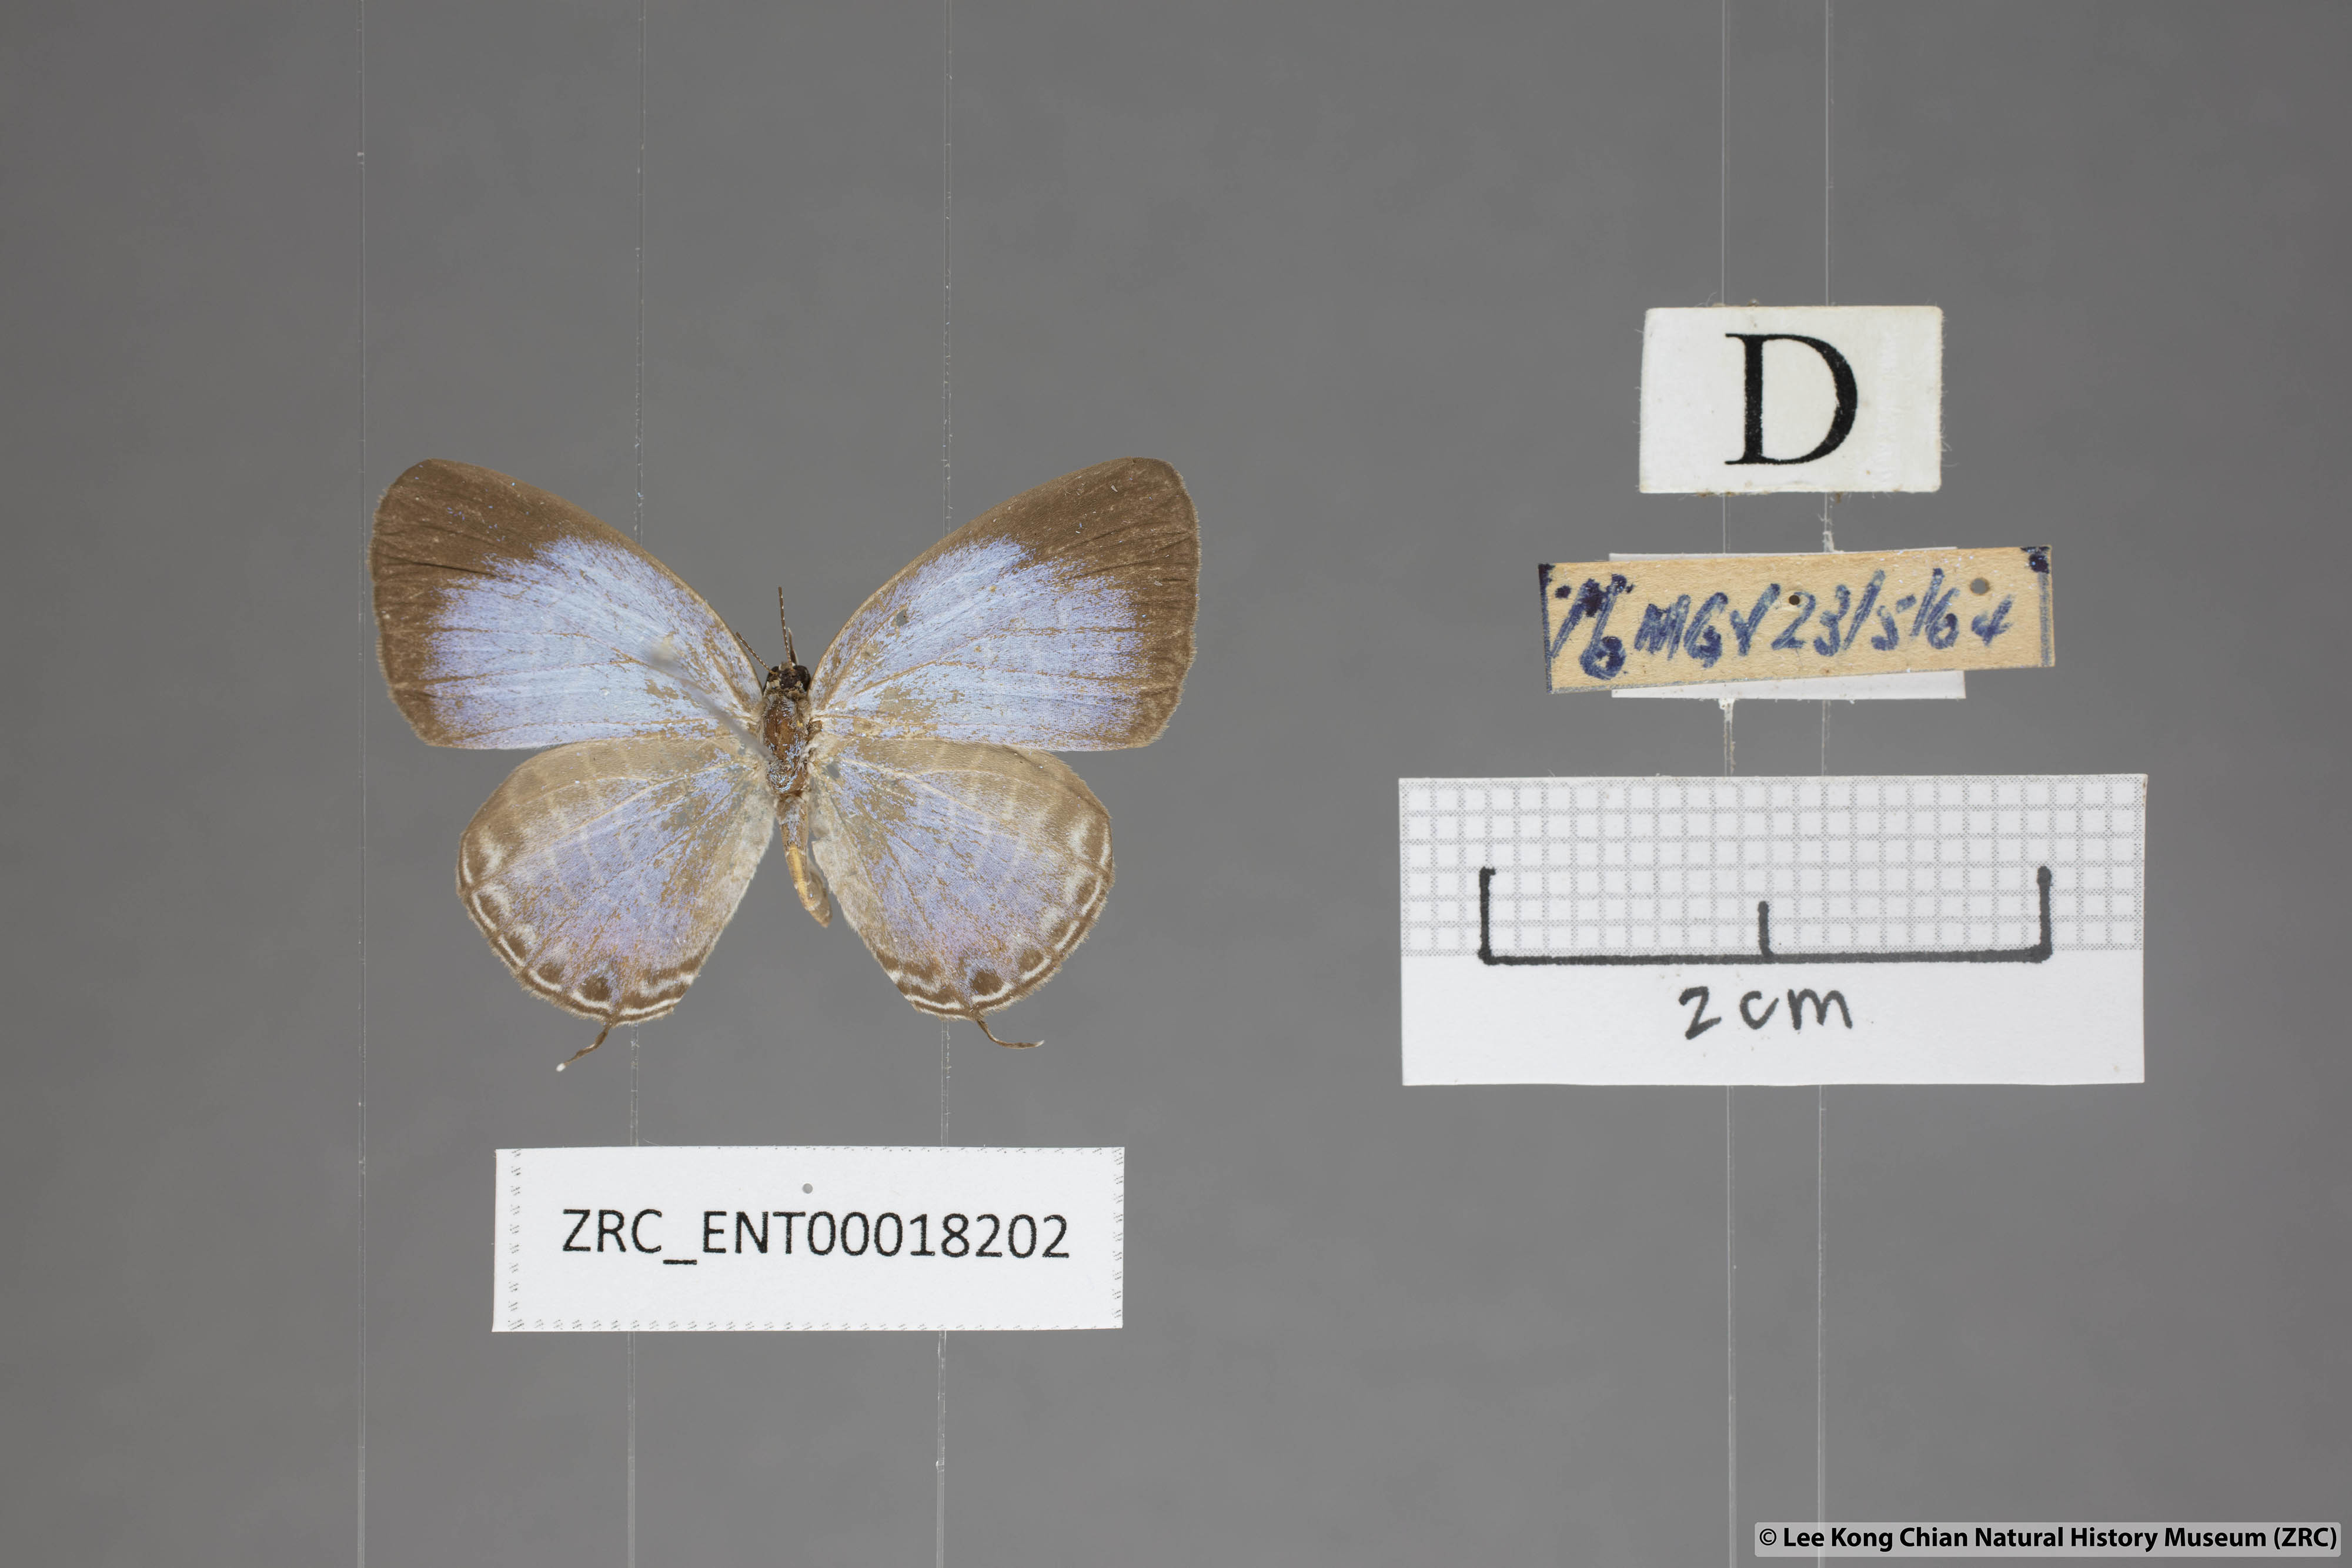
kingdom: Animalia
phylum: Arthropoda
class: Insecta
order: Lepidoptera
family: Lycaenidae
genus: Jamides
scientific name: Jamides talinga
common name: Lesser cerulean
